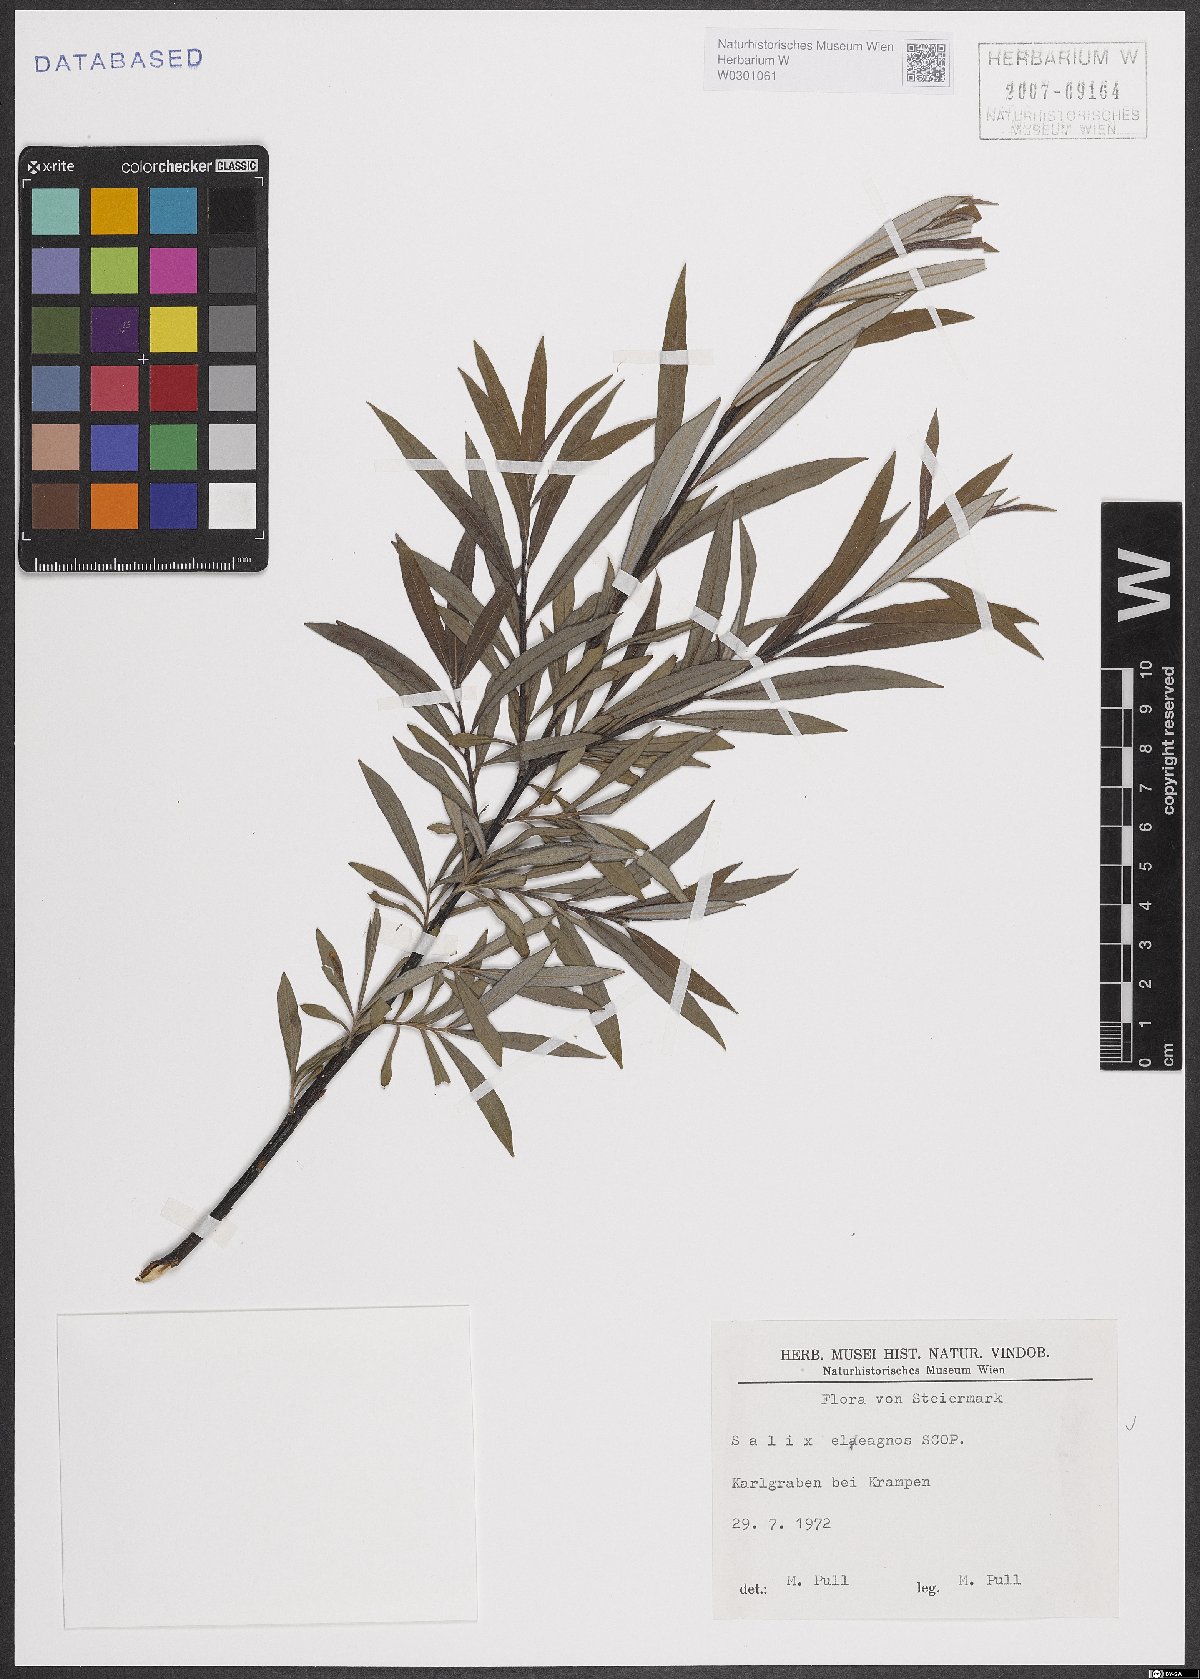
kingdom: Plantae
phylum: Tracheophyta
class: Magnoliopsida
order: Malpighiales
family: Salicaceae
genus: Salix
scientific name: Salix eleagnos
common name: Elaeagnus willow
